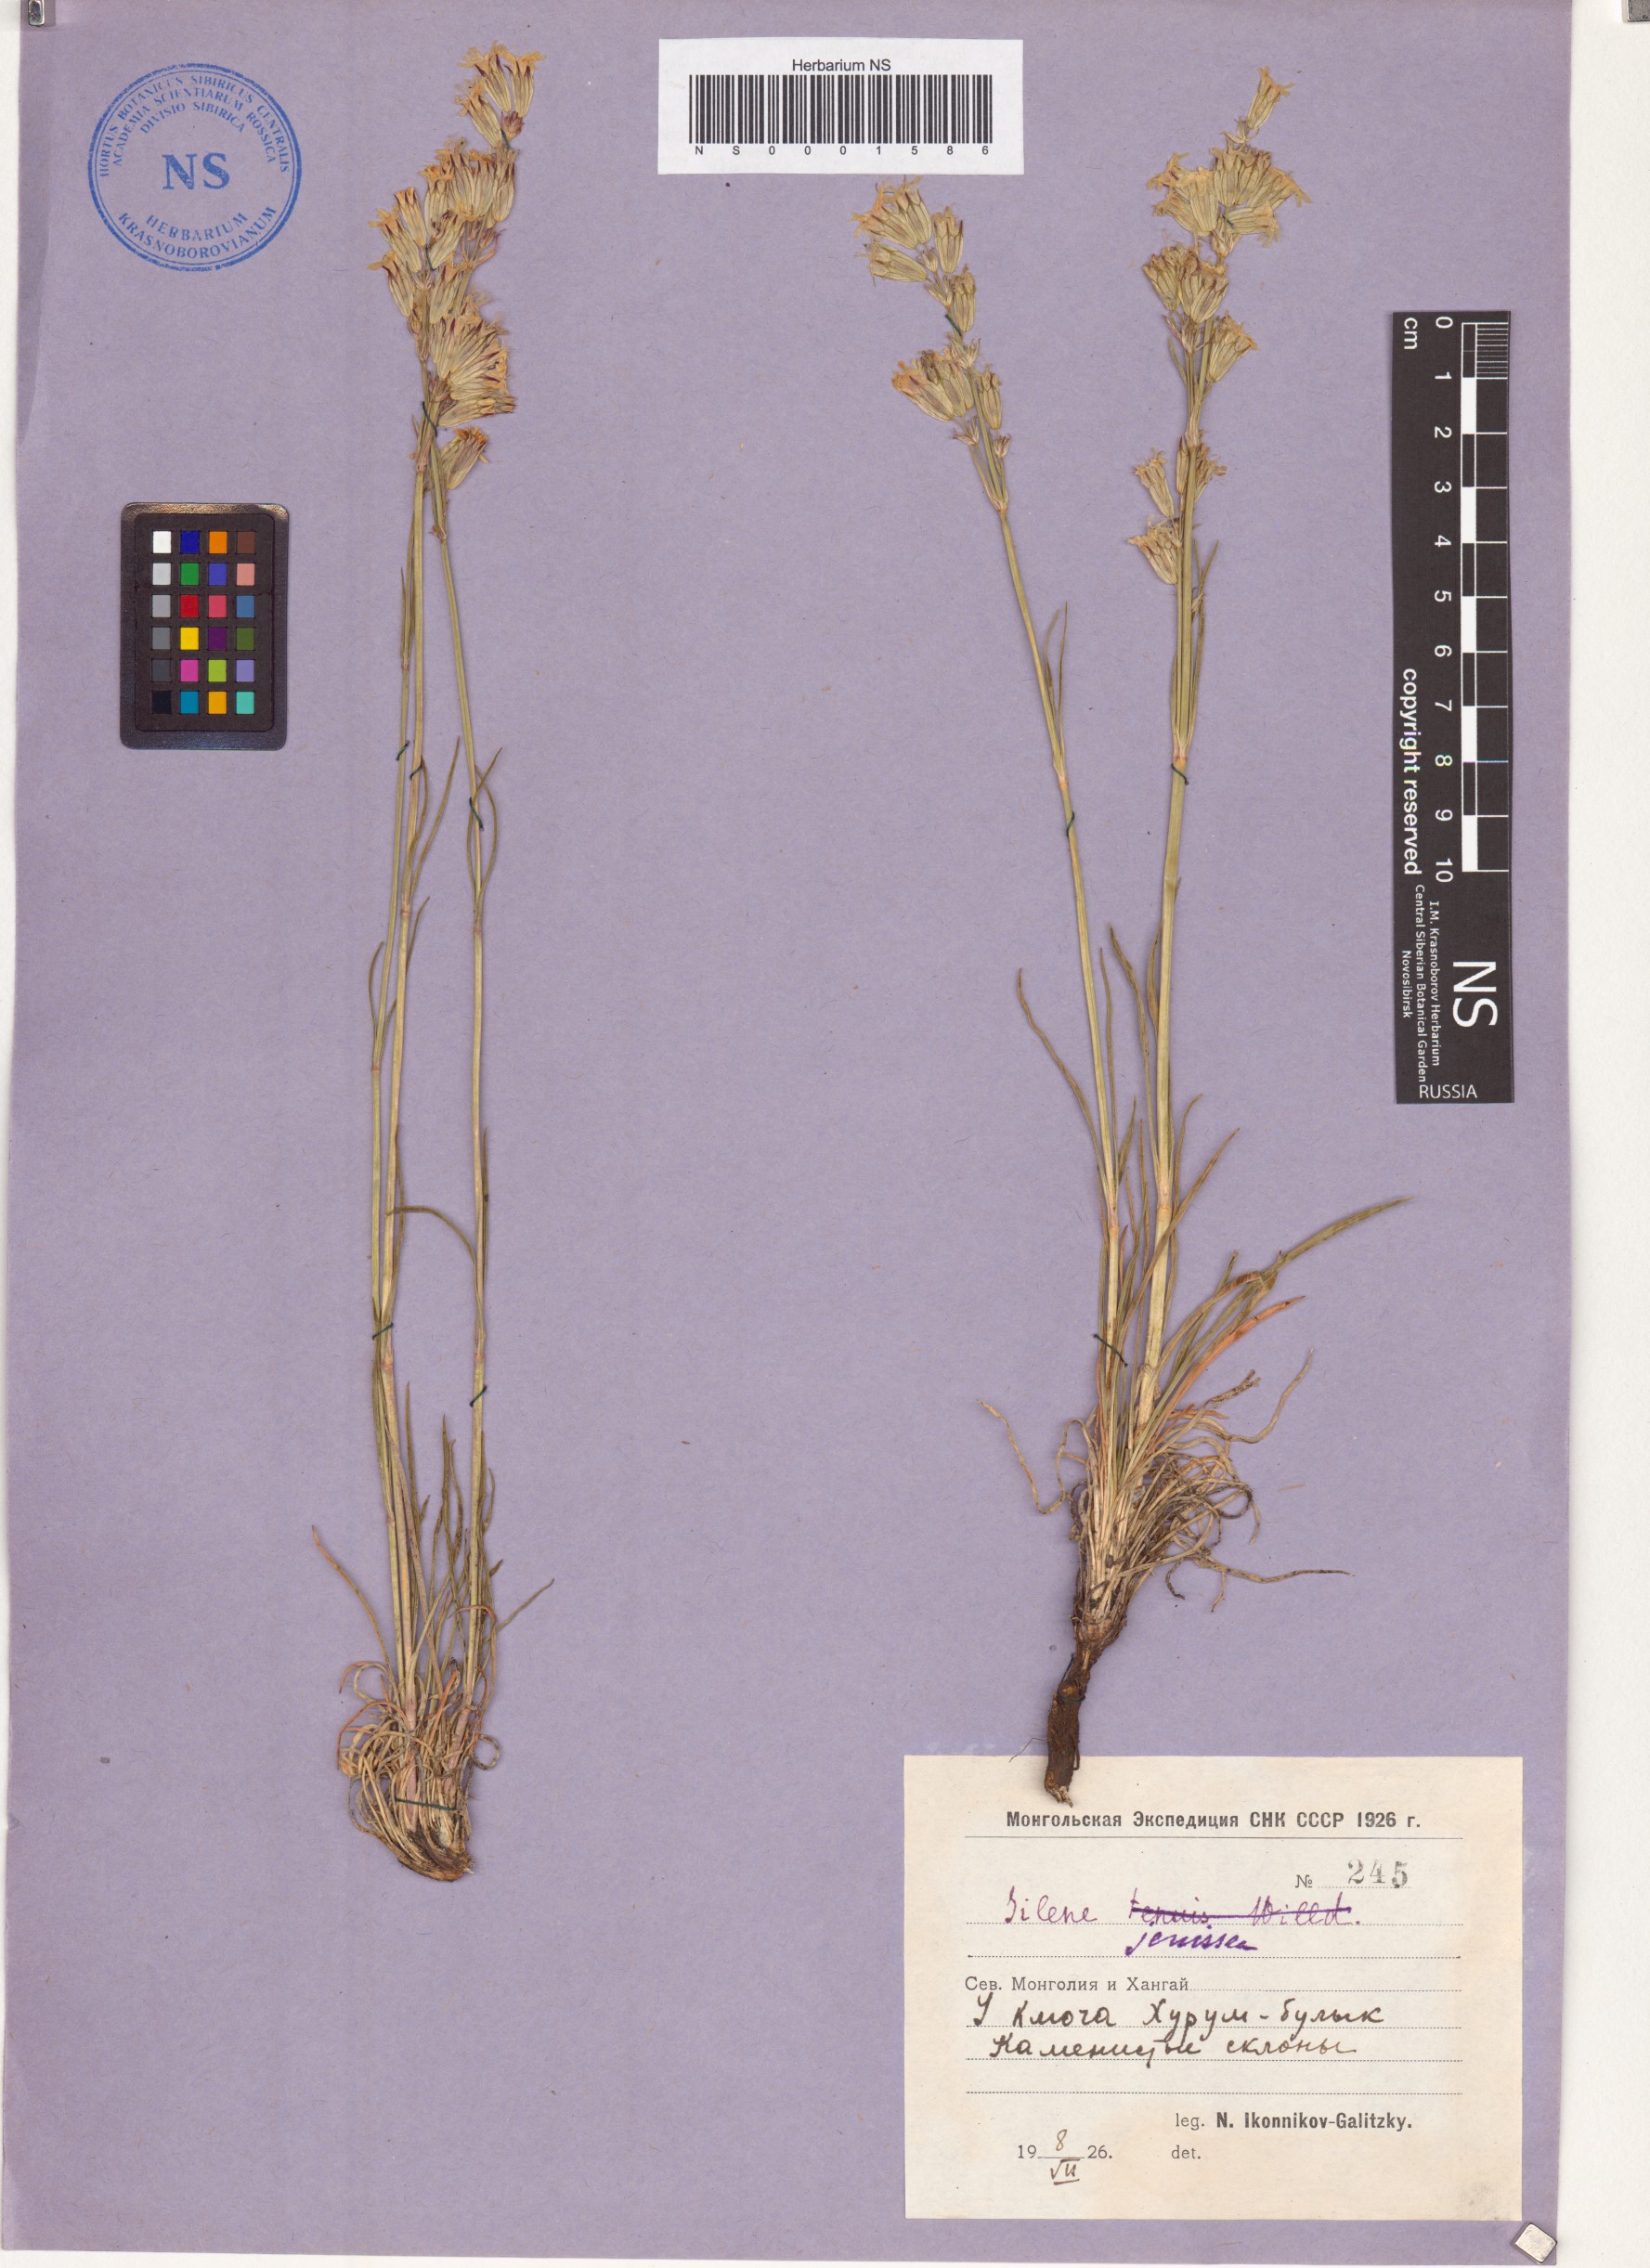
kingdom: Plantae
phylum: Tracheophyta
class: Magnoliopsida
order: Caryophyllales
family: Caryophyllaceae
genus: Silene
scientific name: Silene jeniseensis
